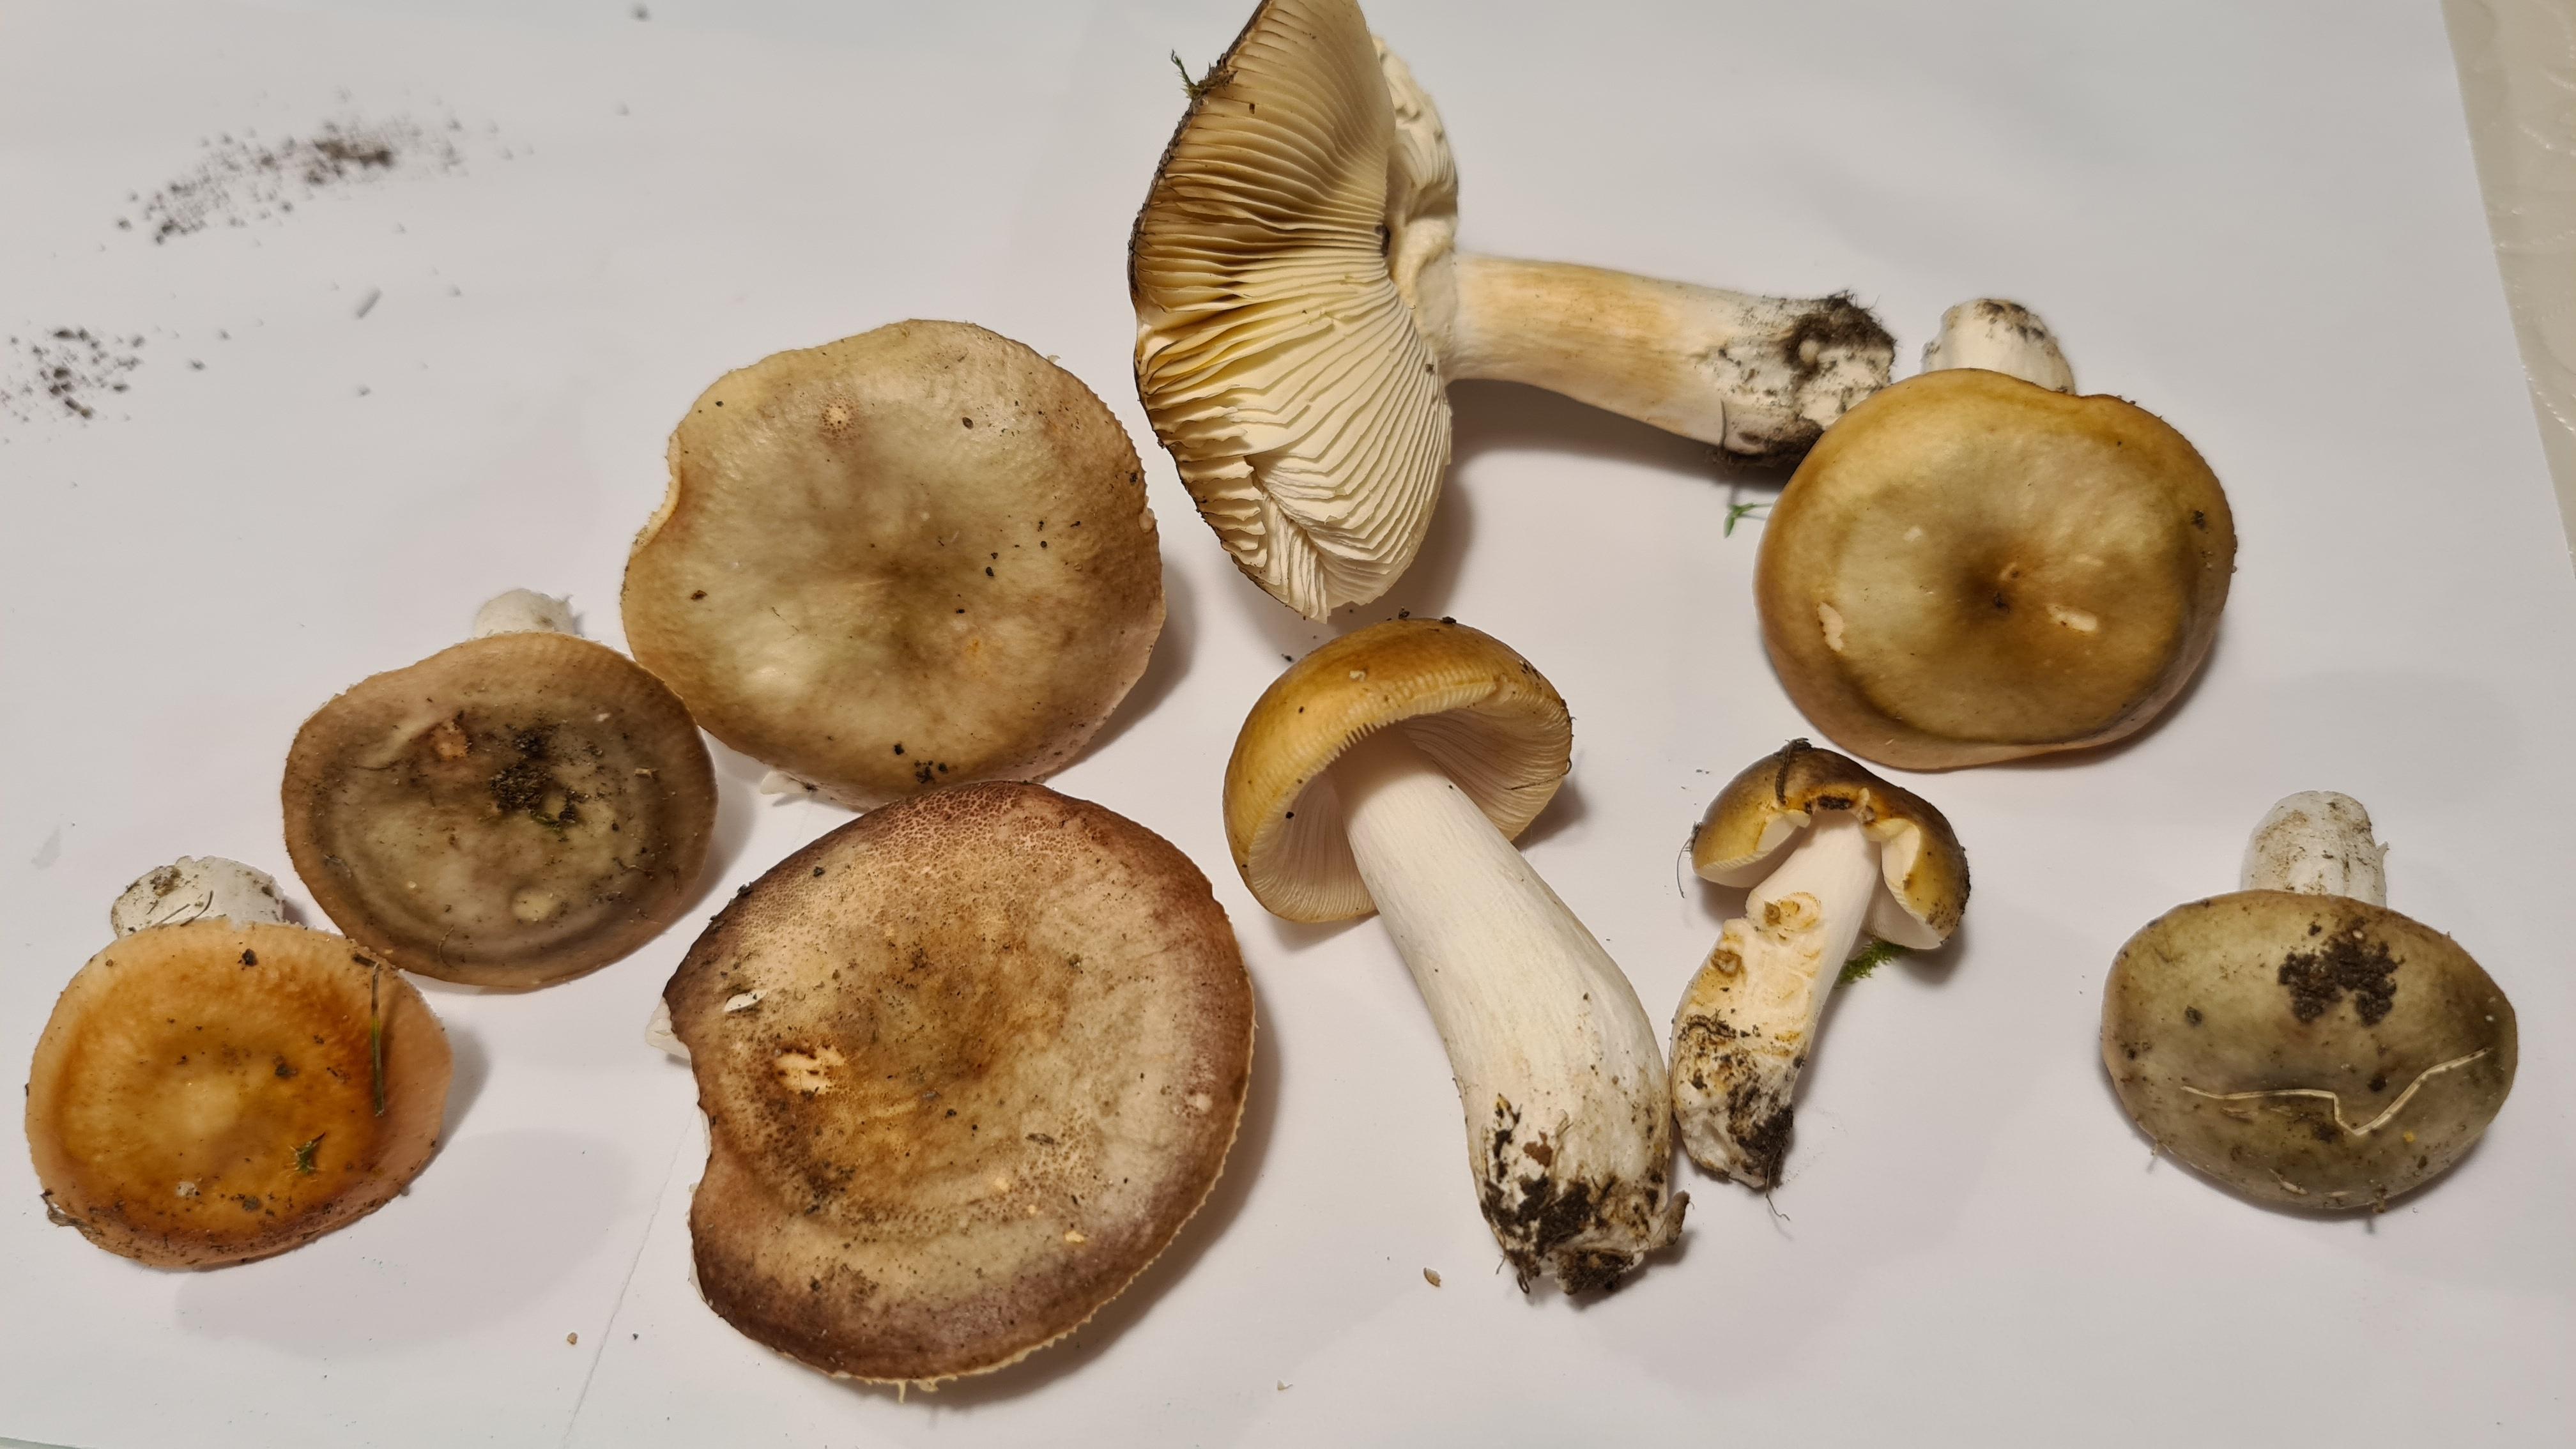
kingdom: Fungi
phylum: Basidiomycota
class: Agaricomycetes
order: Russulales
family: Russulaceae
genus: Russula
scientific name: Russula versicolor
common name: foranderlig skørhat
